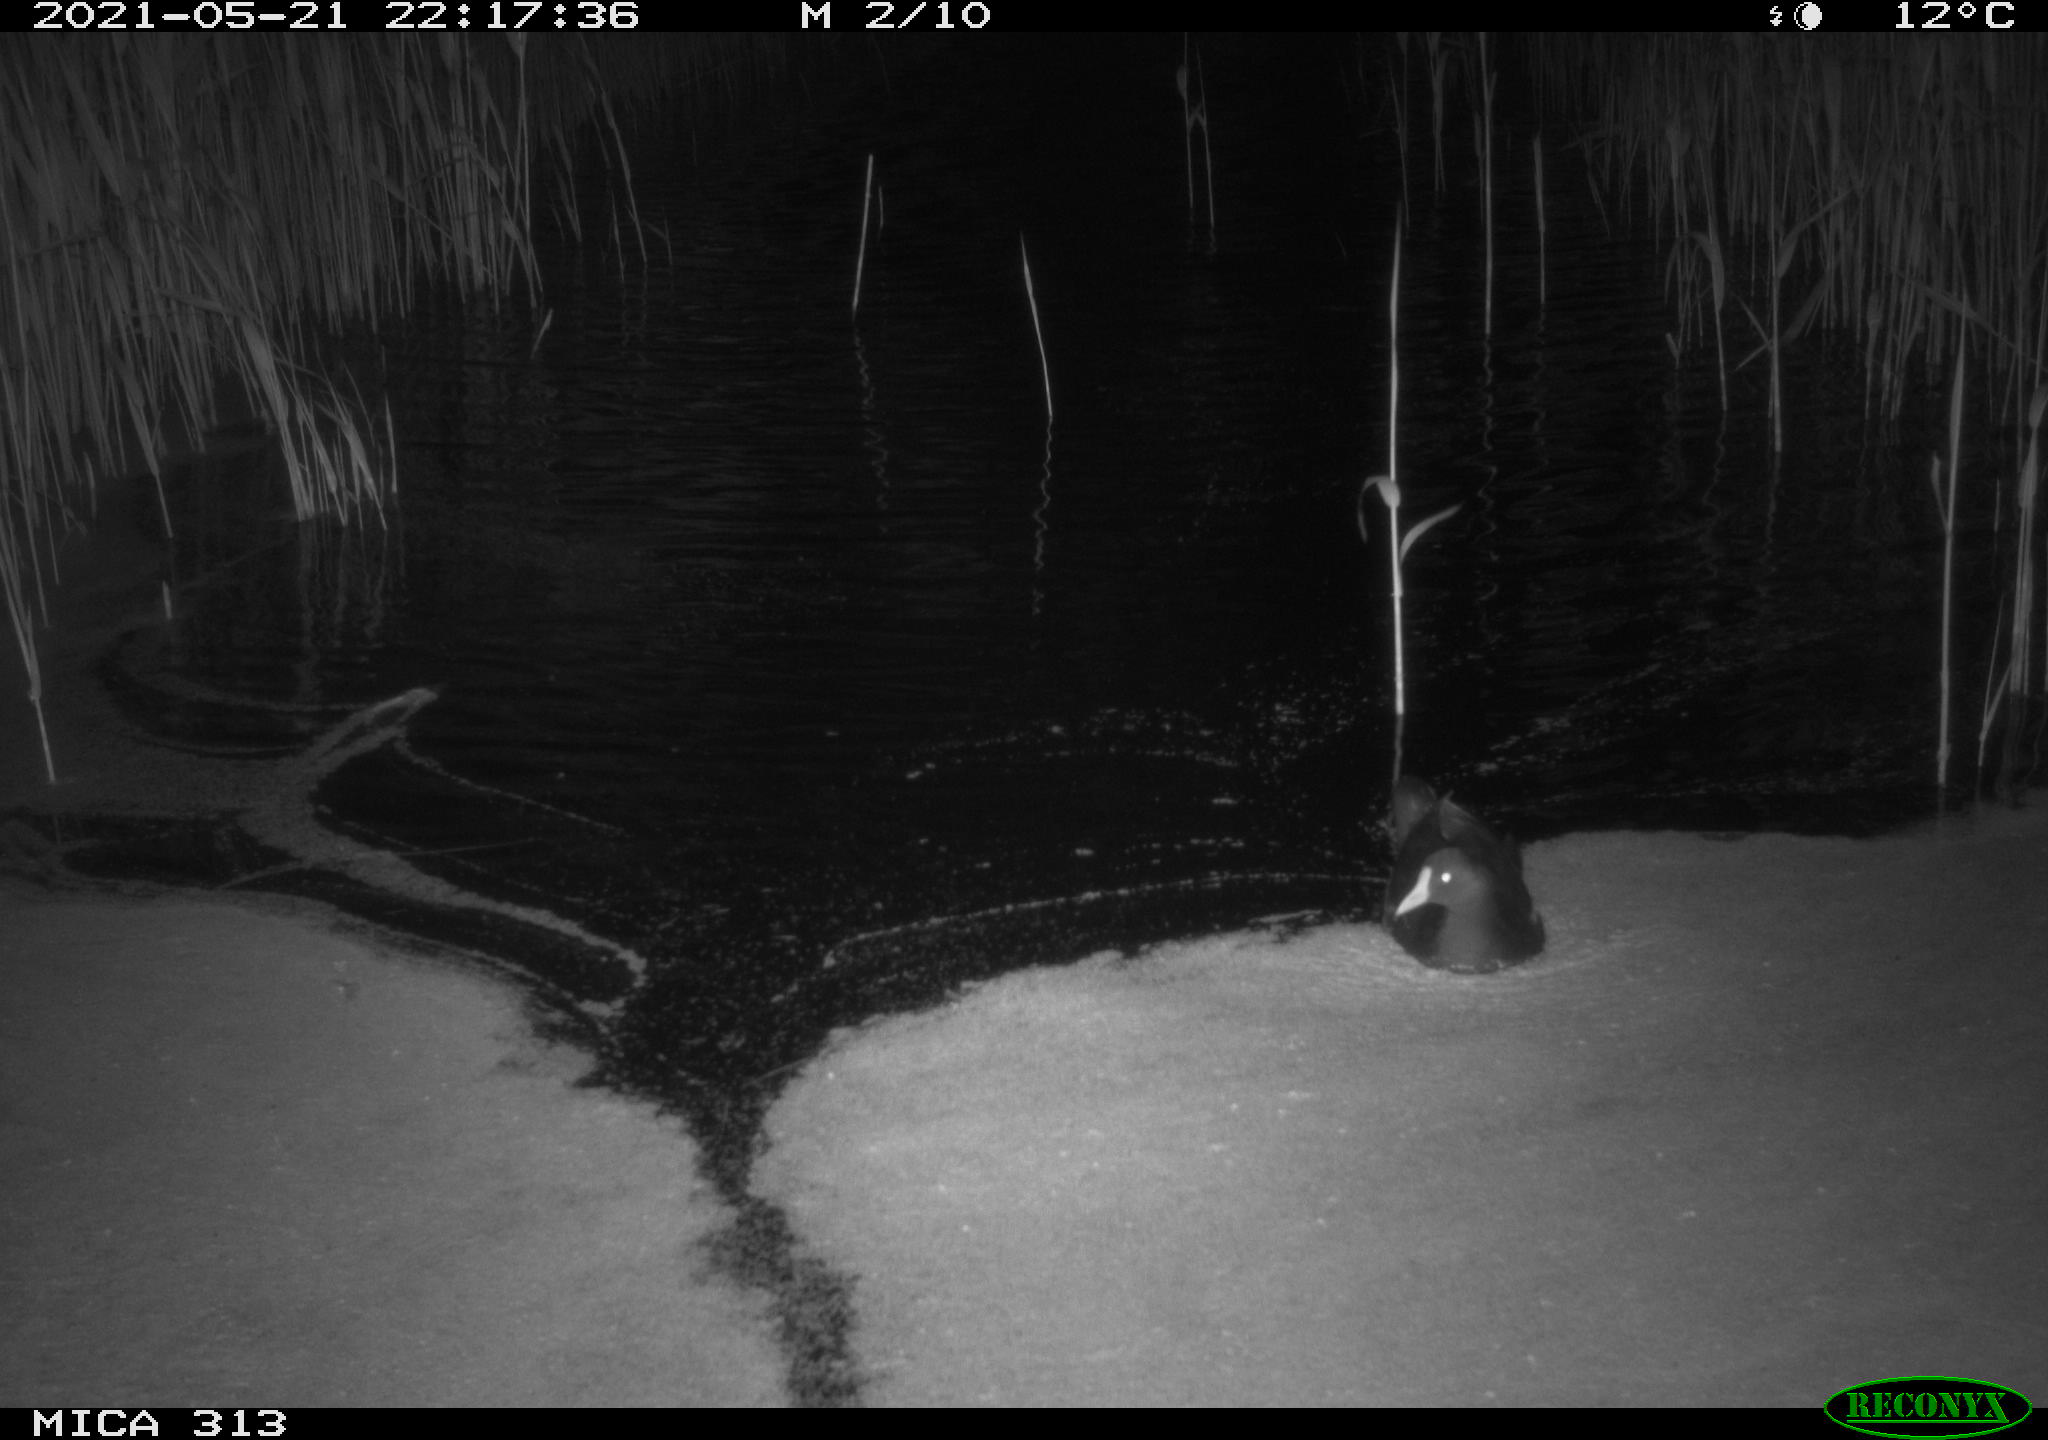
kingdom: Animalia
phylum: Chordata
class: Aves
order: Gruiformes
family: Rallidae
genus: Gallinula
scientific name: Gallinula chloropus
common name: Common moorhen
